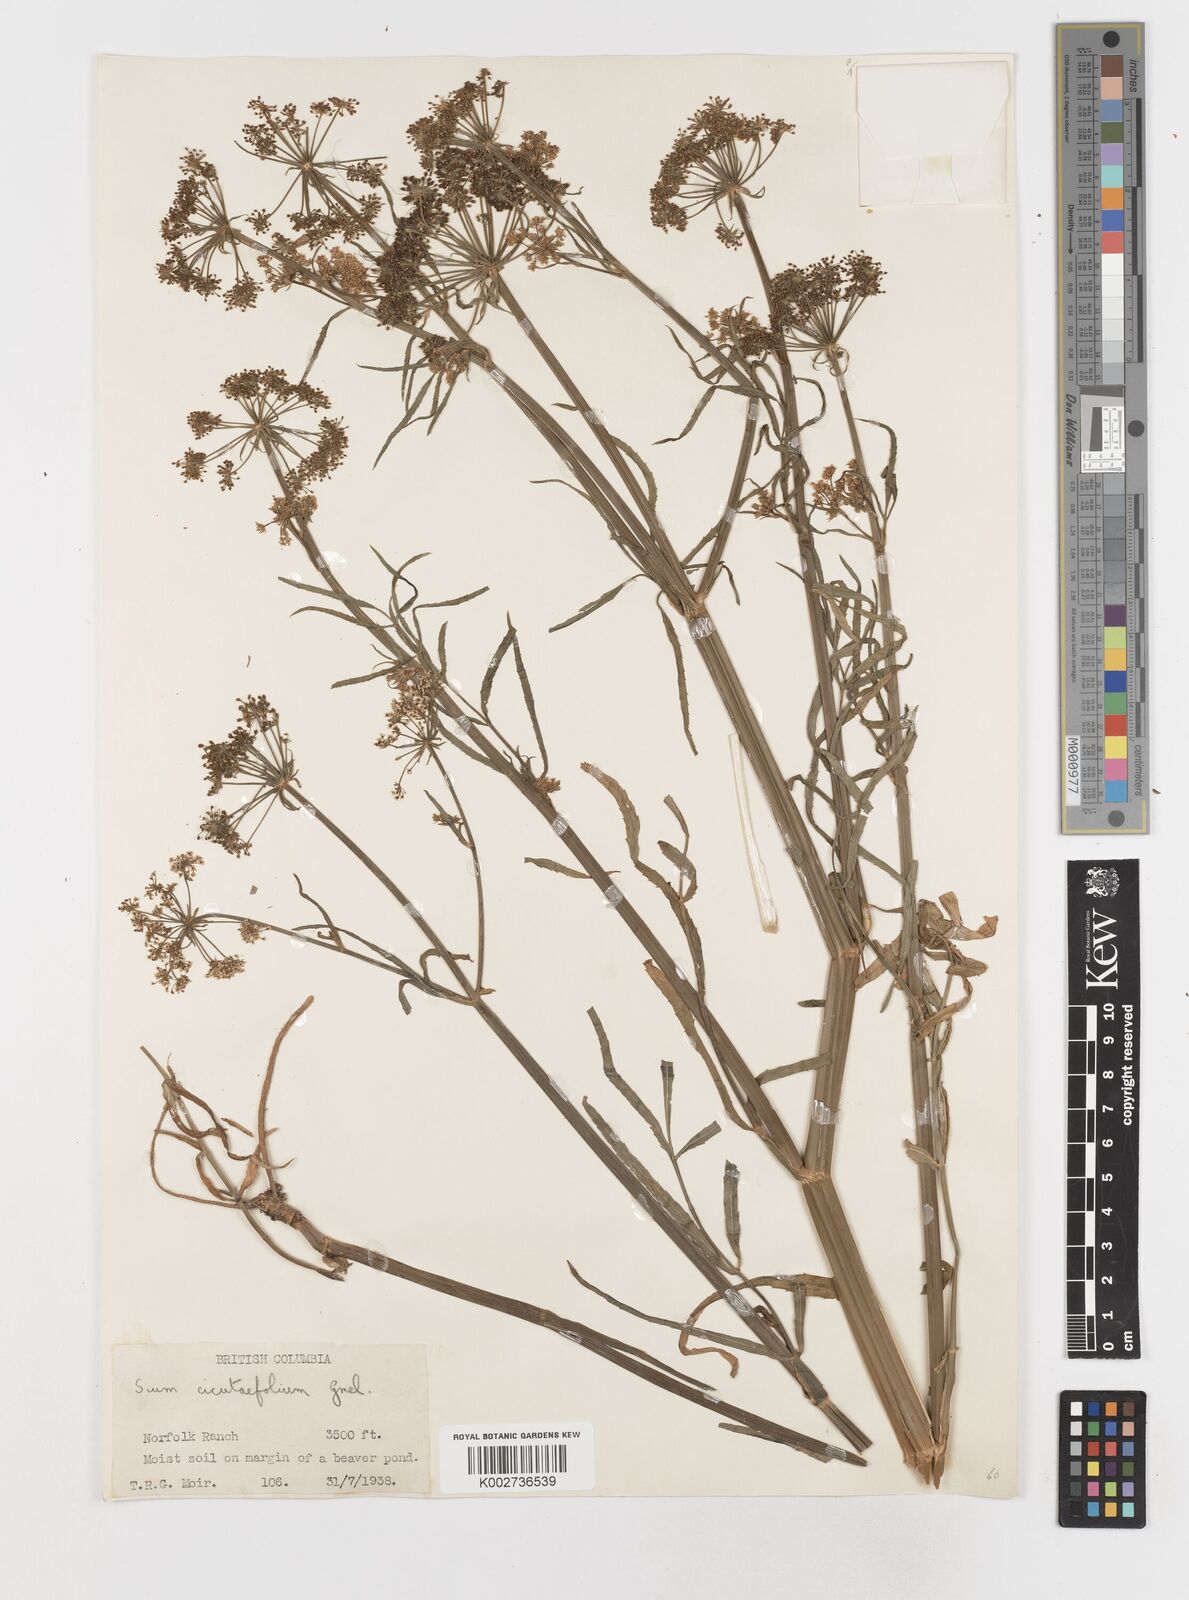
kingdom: Plantae
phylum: Tracheophyta
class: Magnoliopsida
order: Apiales
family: Apiaceae
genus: Sium
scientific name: Sium suave
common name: Hemlock water-parsnip
